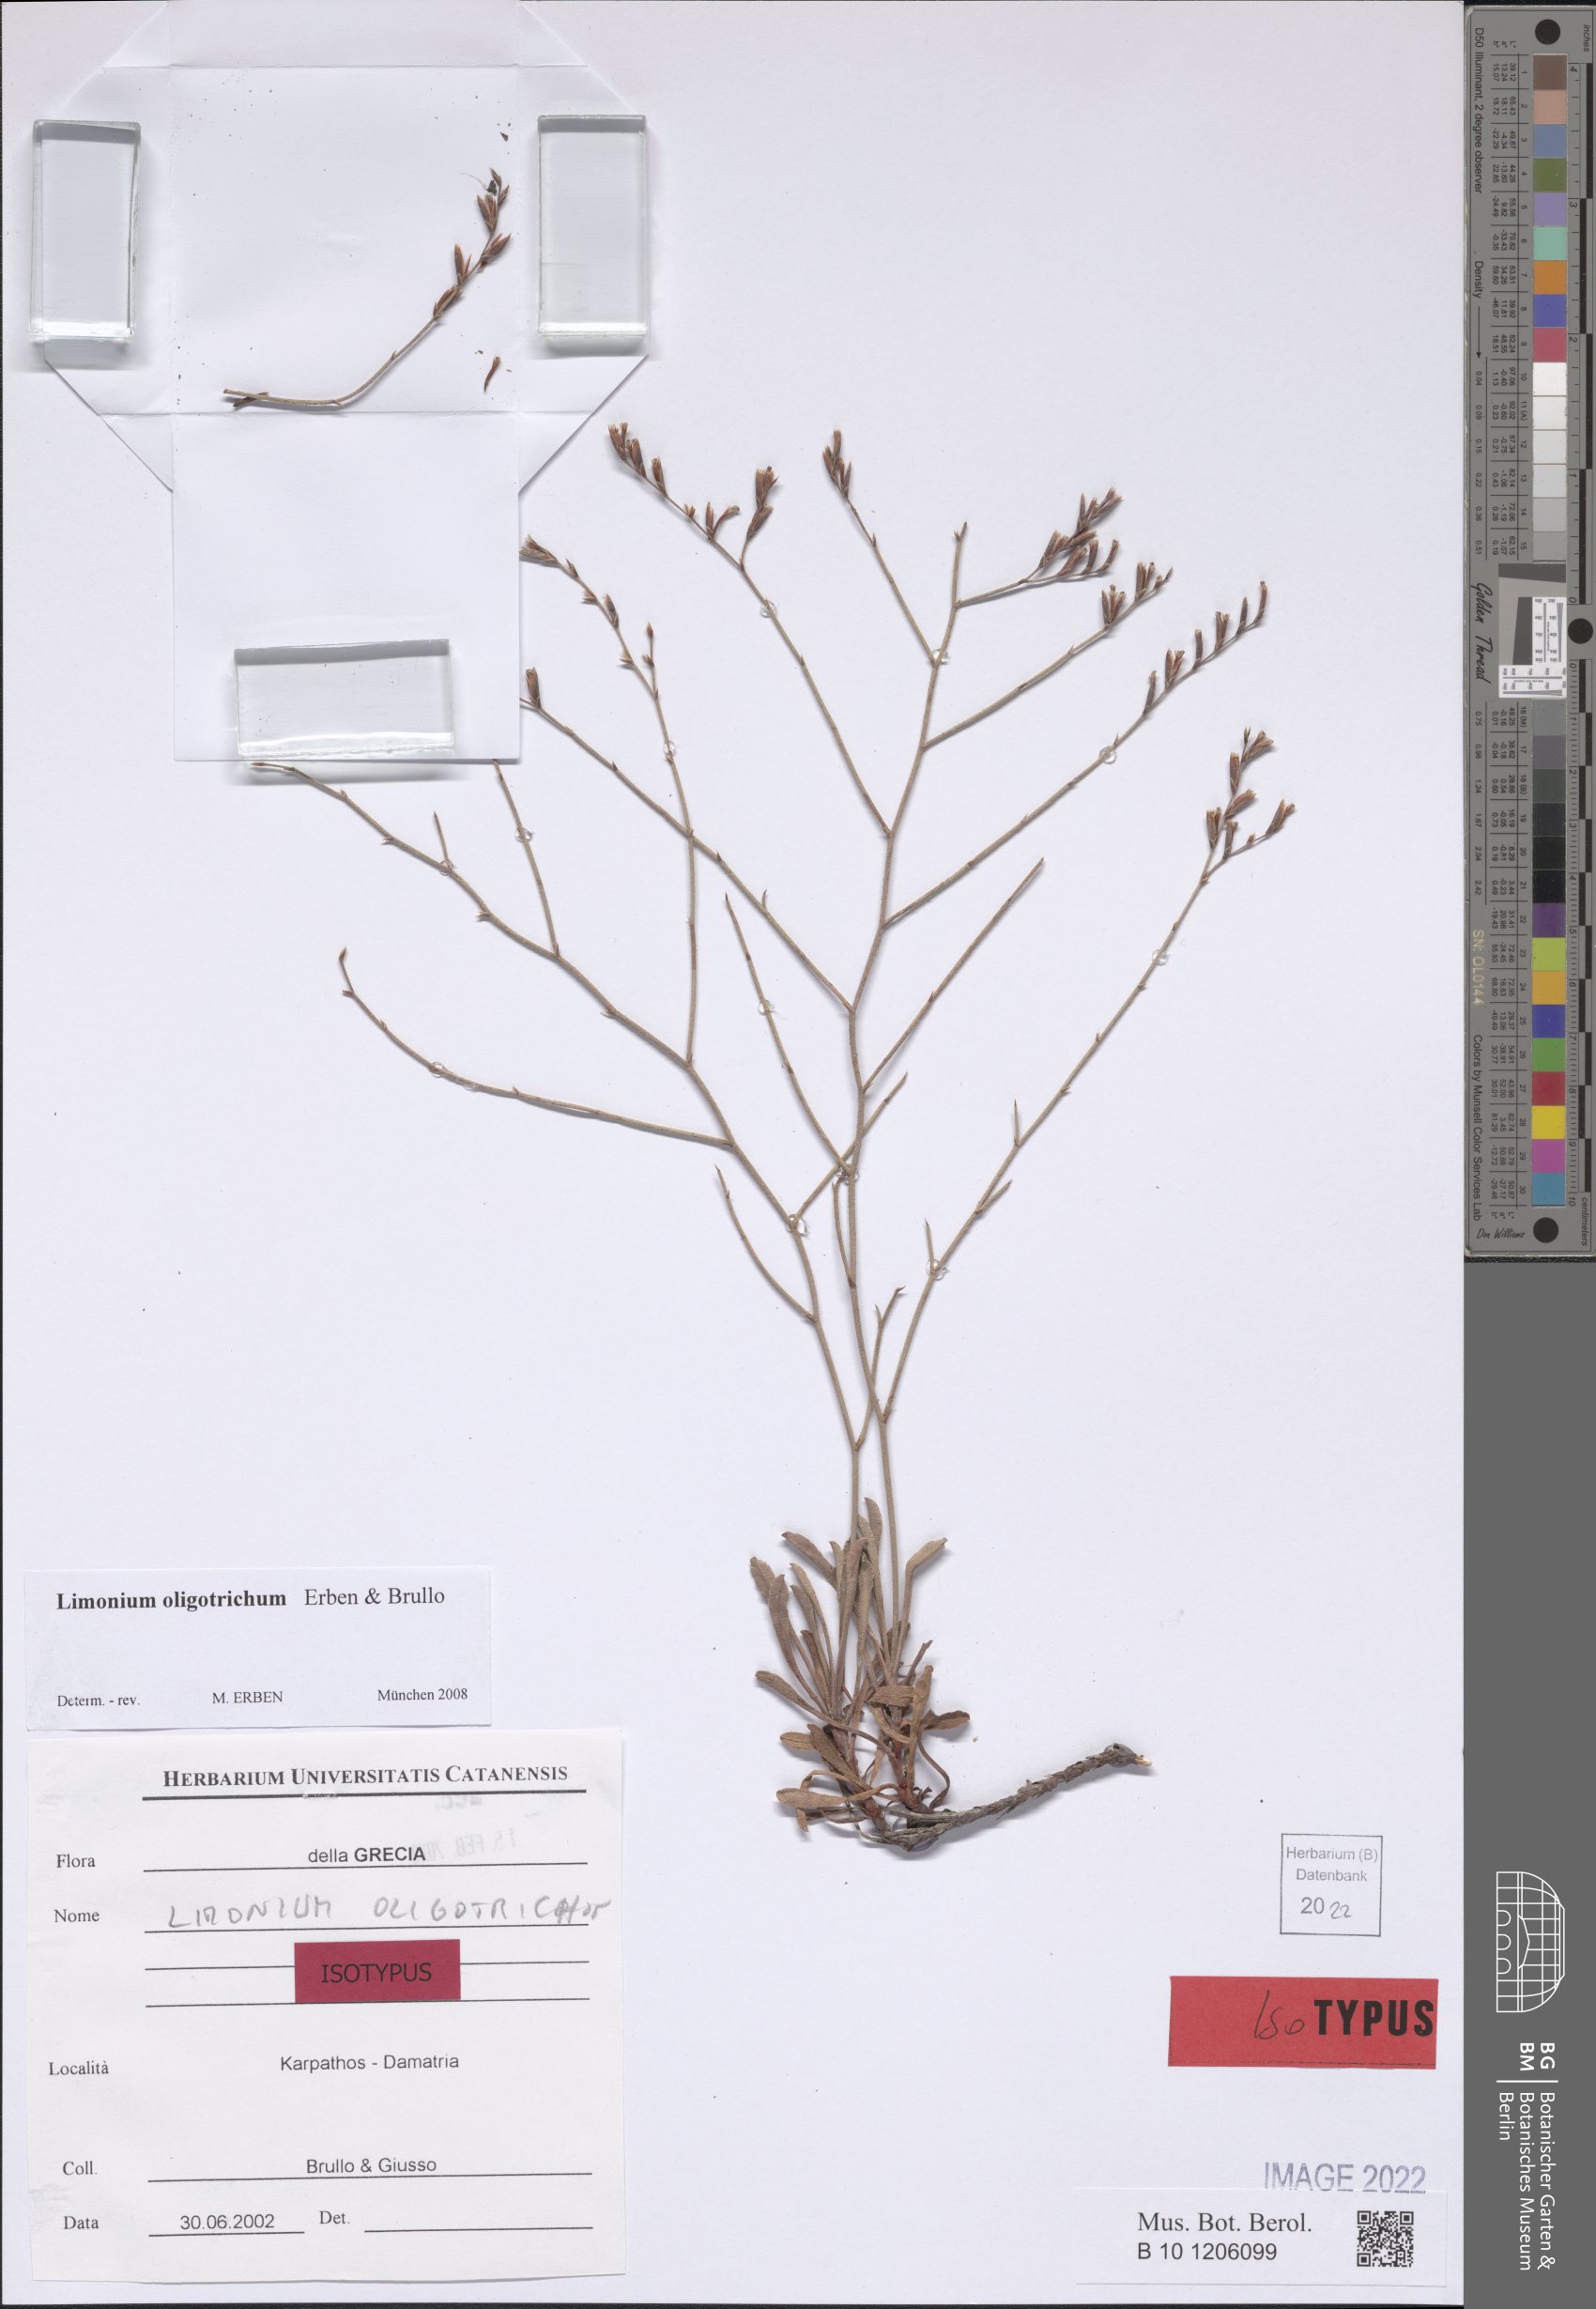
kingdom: Plantae
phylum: Tracheophyta
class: Magnoliopsida
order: Caryophyllales
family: Plumbaginaceae
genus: Limonium
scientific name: Limonium oligotrichum
